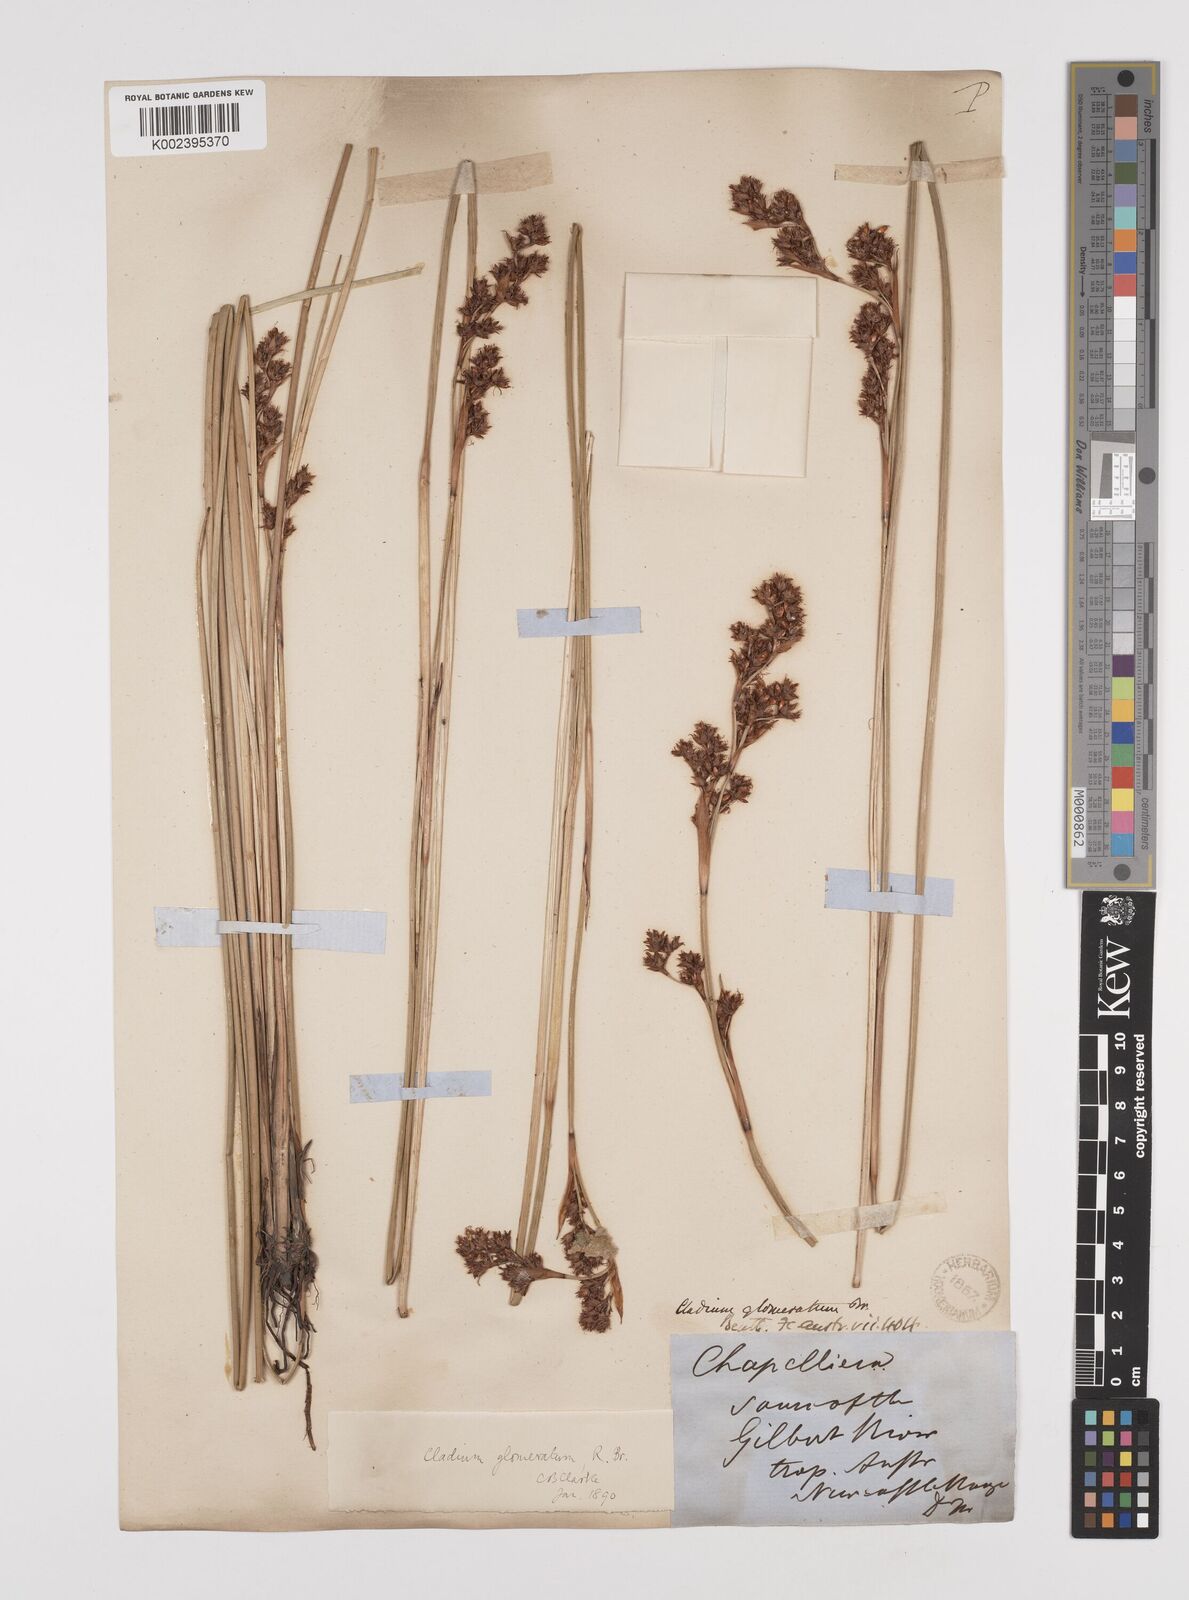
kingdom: Plantae
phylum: Tracheophyta
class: Liliopsida
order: Poales
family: Cyperaceae
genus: Machaerina
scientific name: Machaerina rubiginosa
